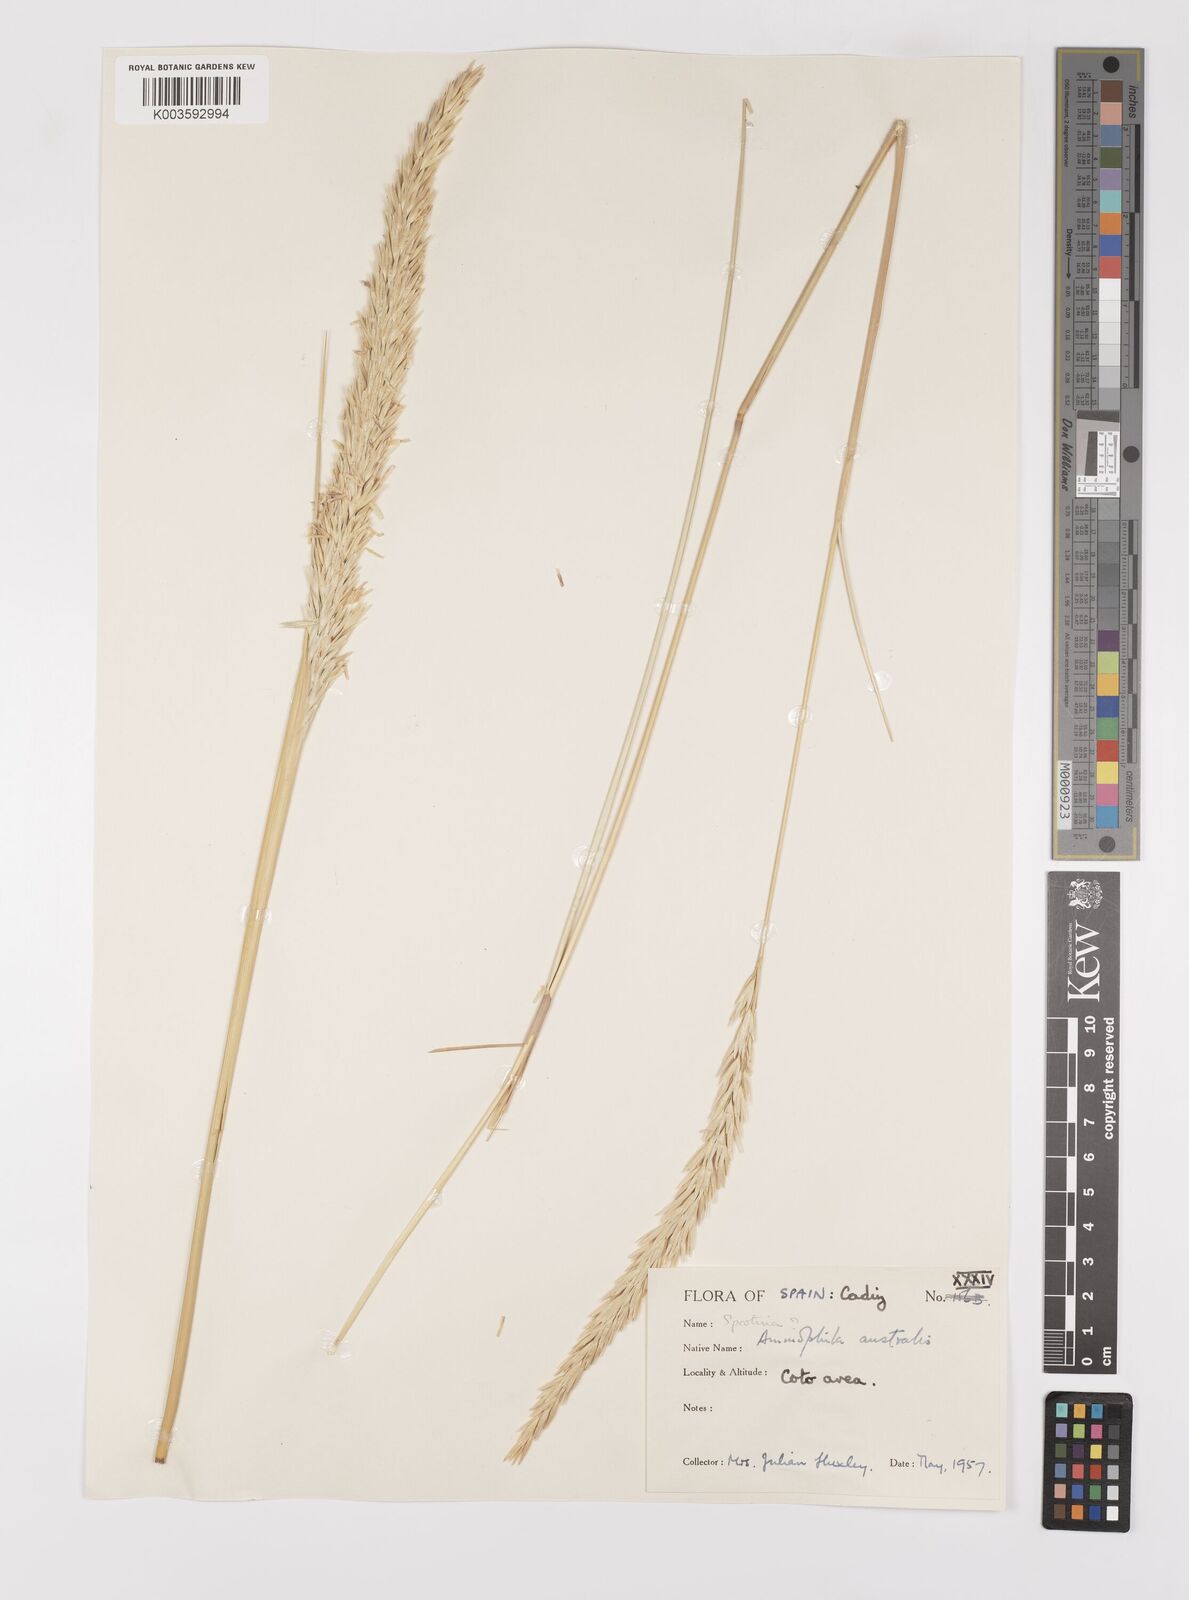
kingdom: Plantae
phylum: Tracheophyta
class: Liliopsida
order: Poales
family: Poaceae
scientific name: Poaceae
